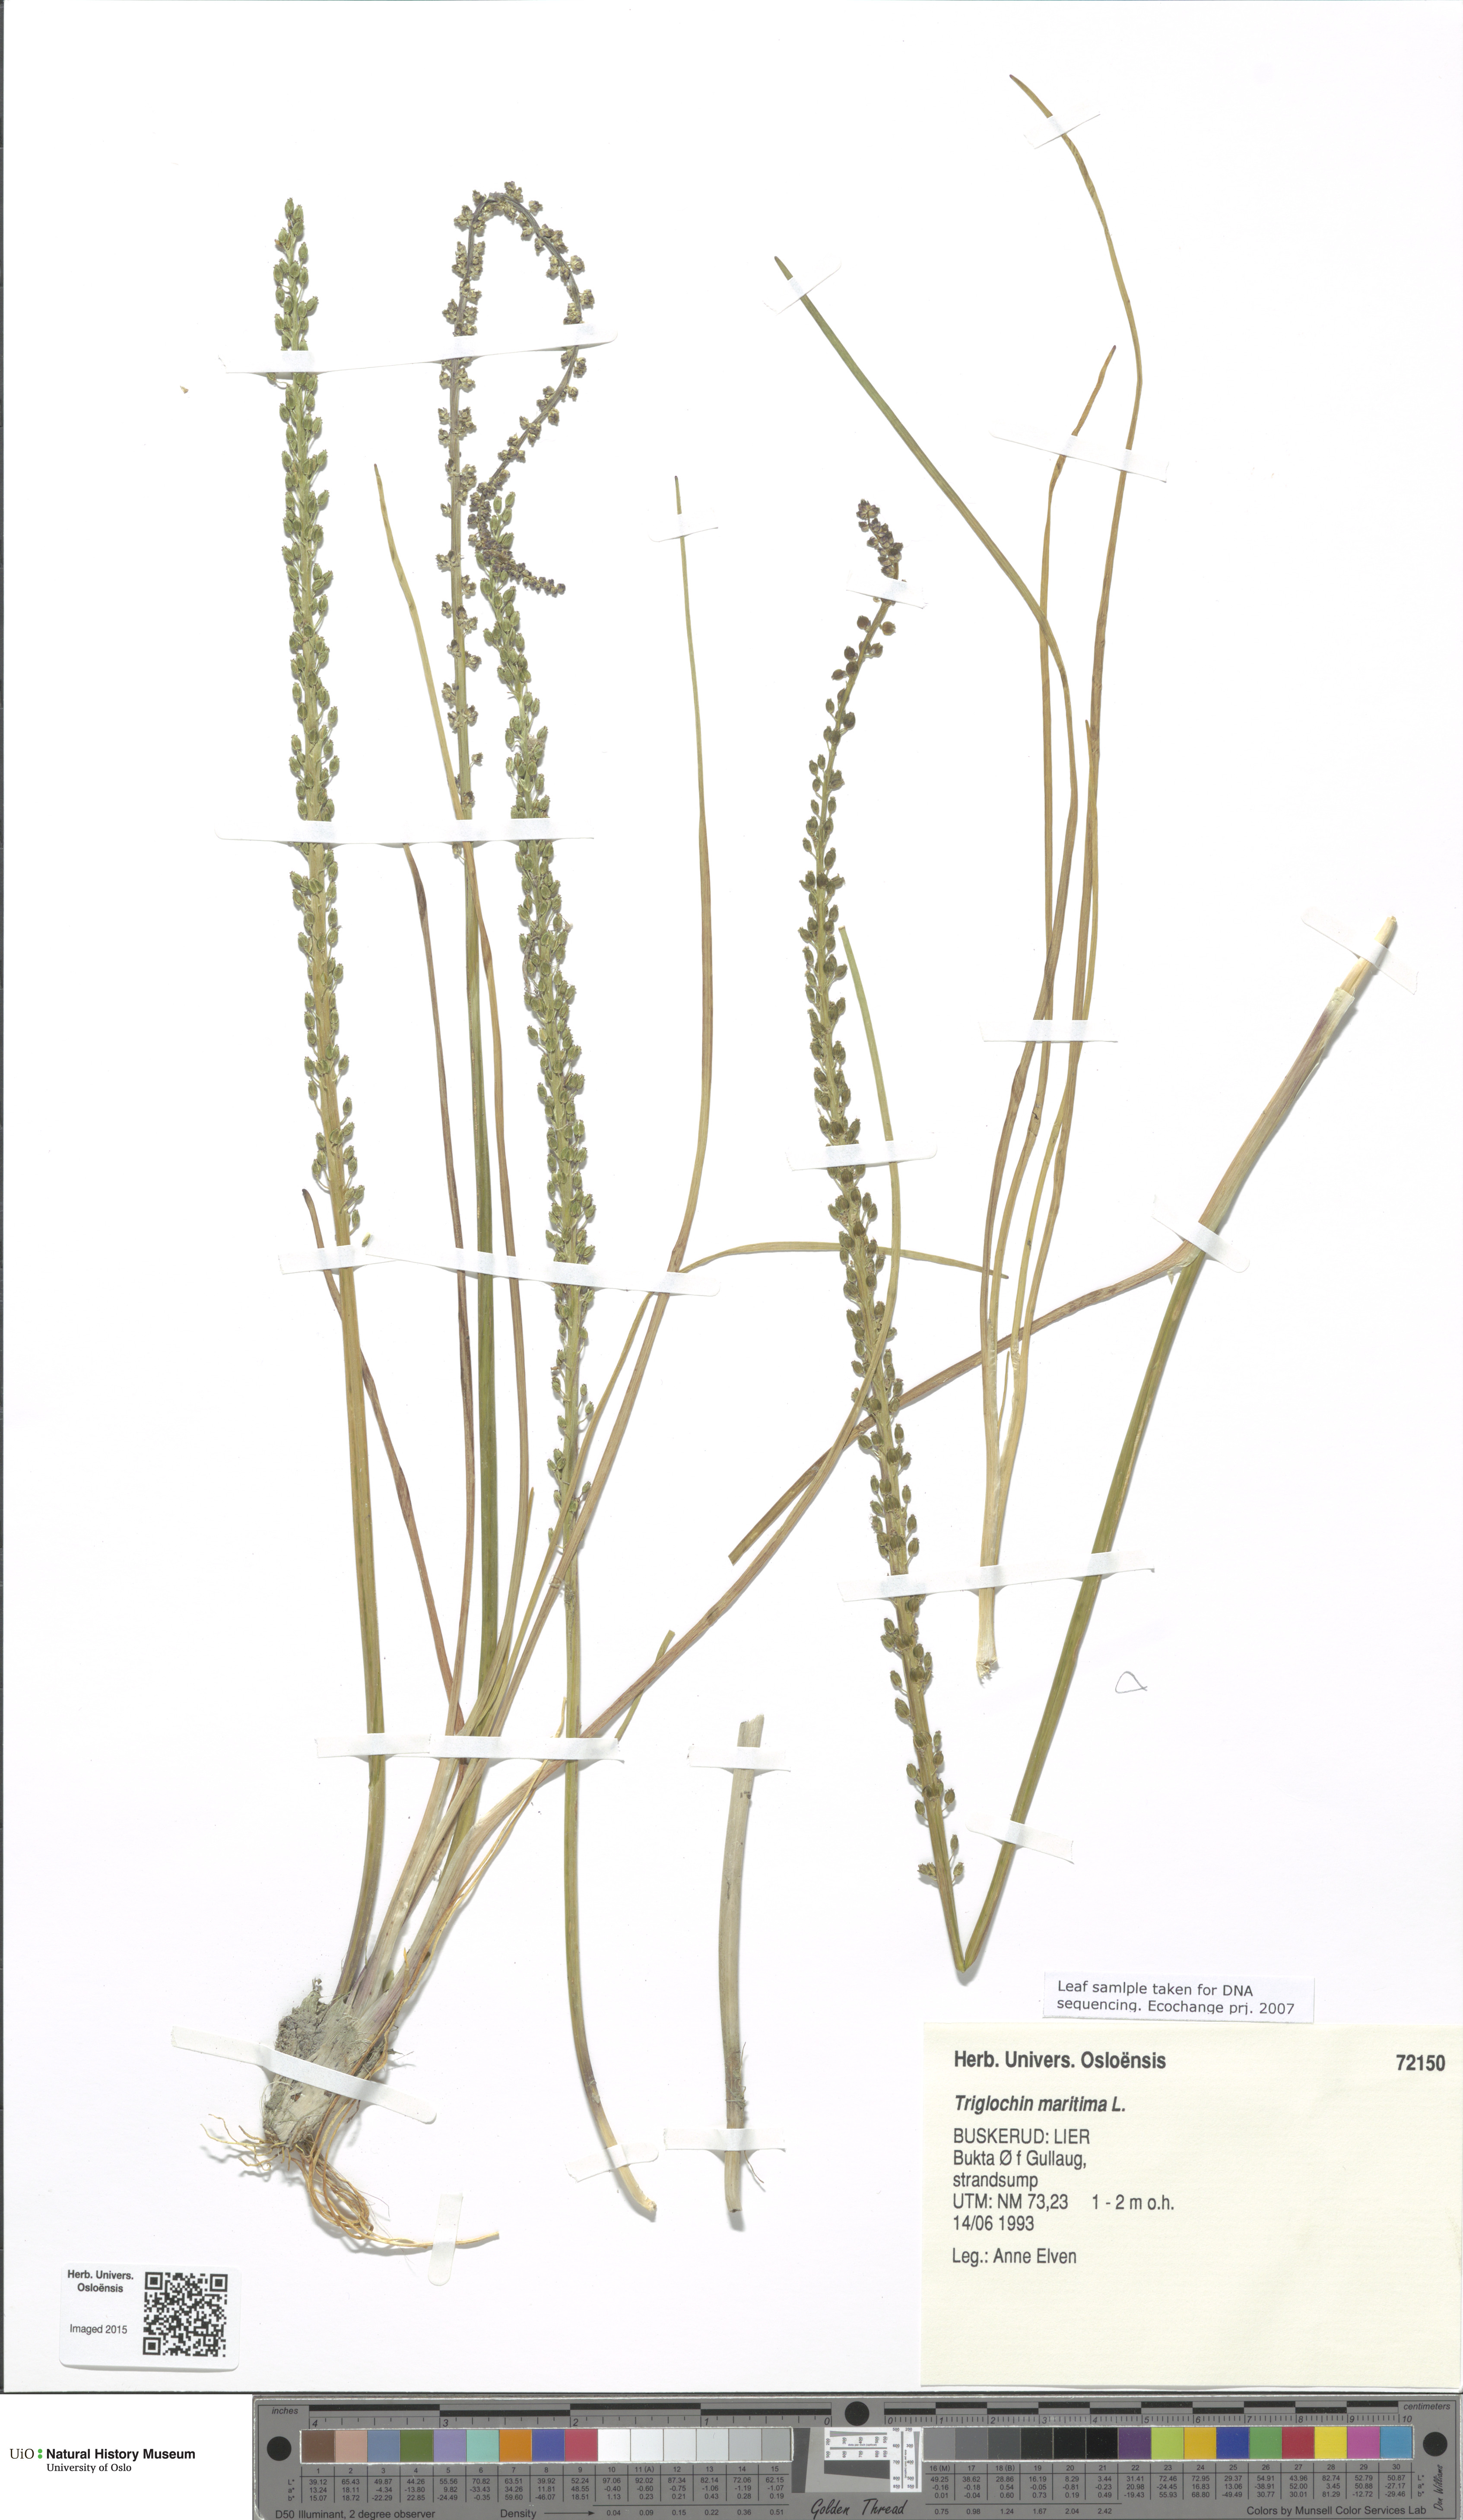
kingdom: Plantae
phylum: Tracheophyta
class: Liliopsida
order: Alismatales
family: Juncaginaceae
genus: Triglochin
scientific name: Triglochin maritima
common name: Sea arrowgrass
